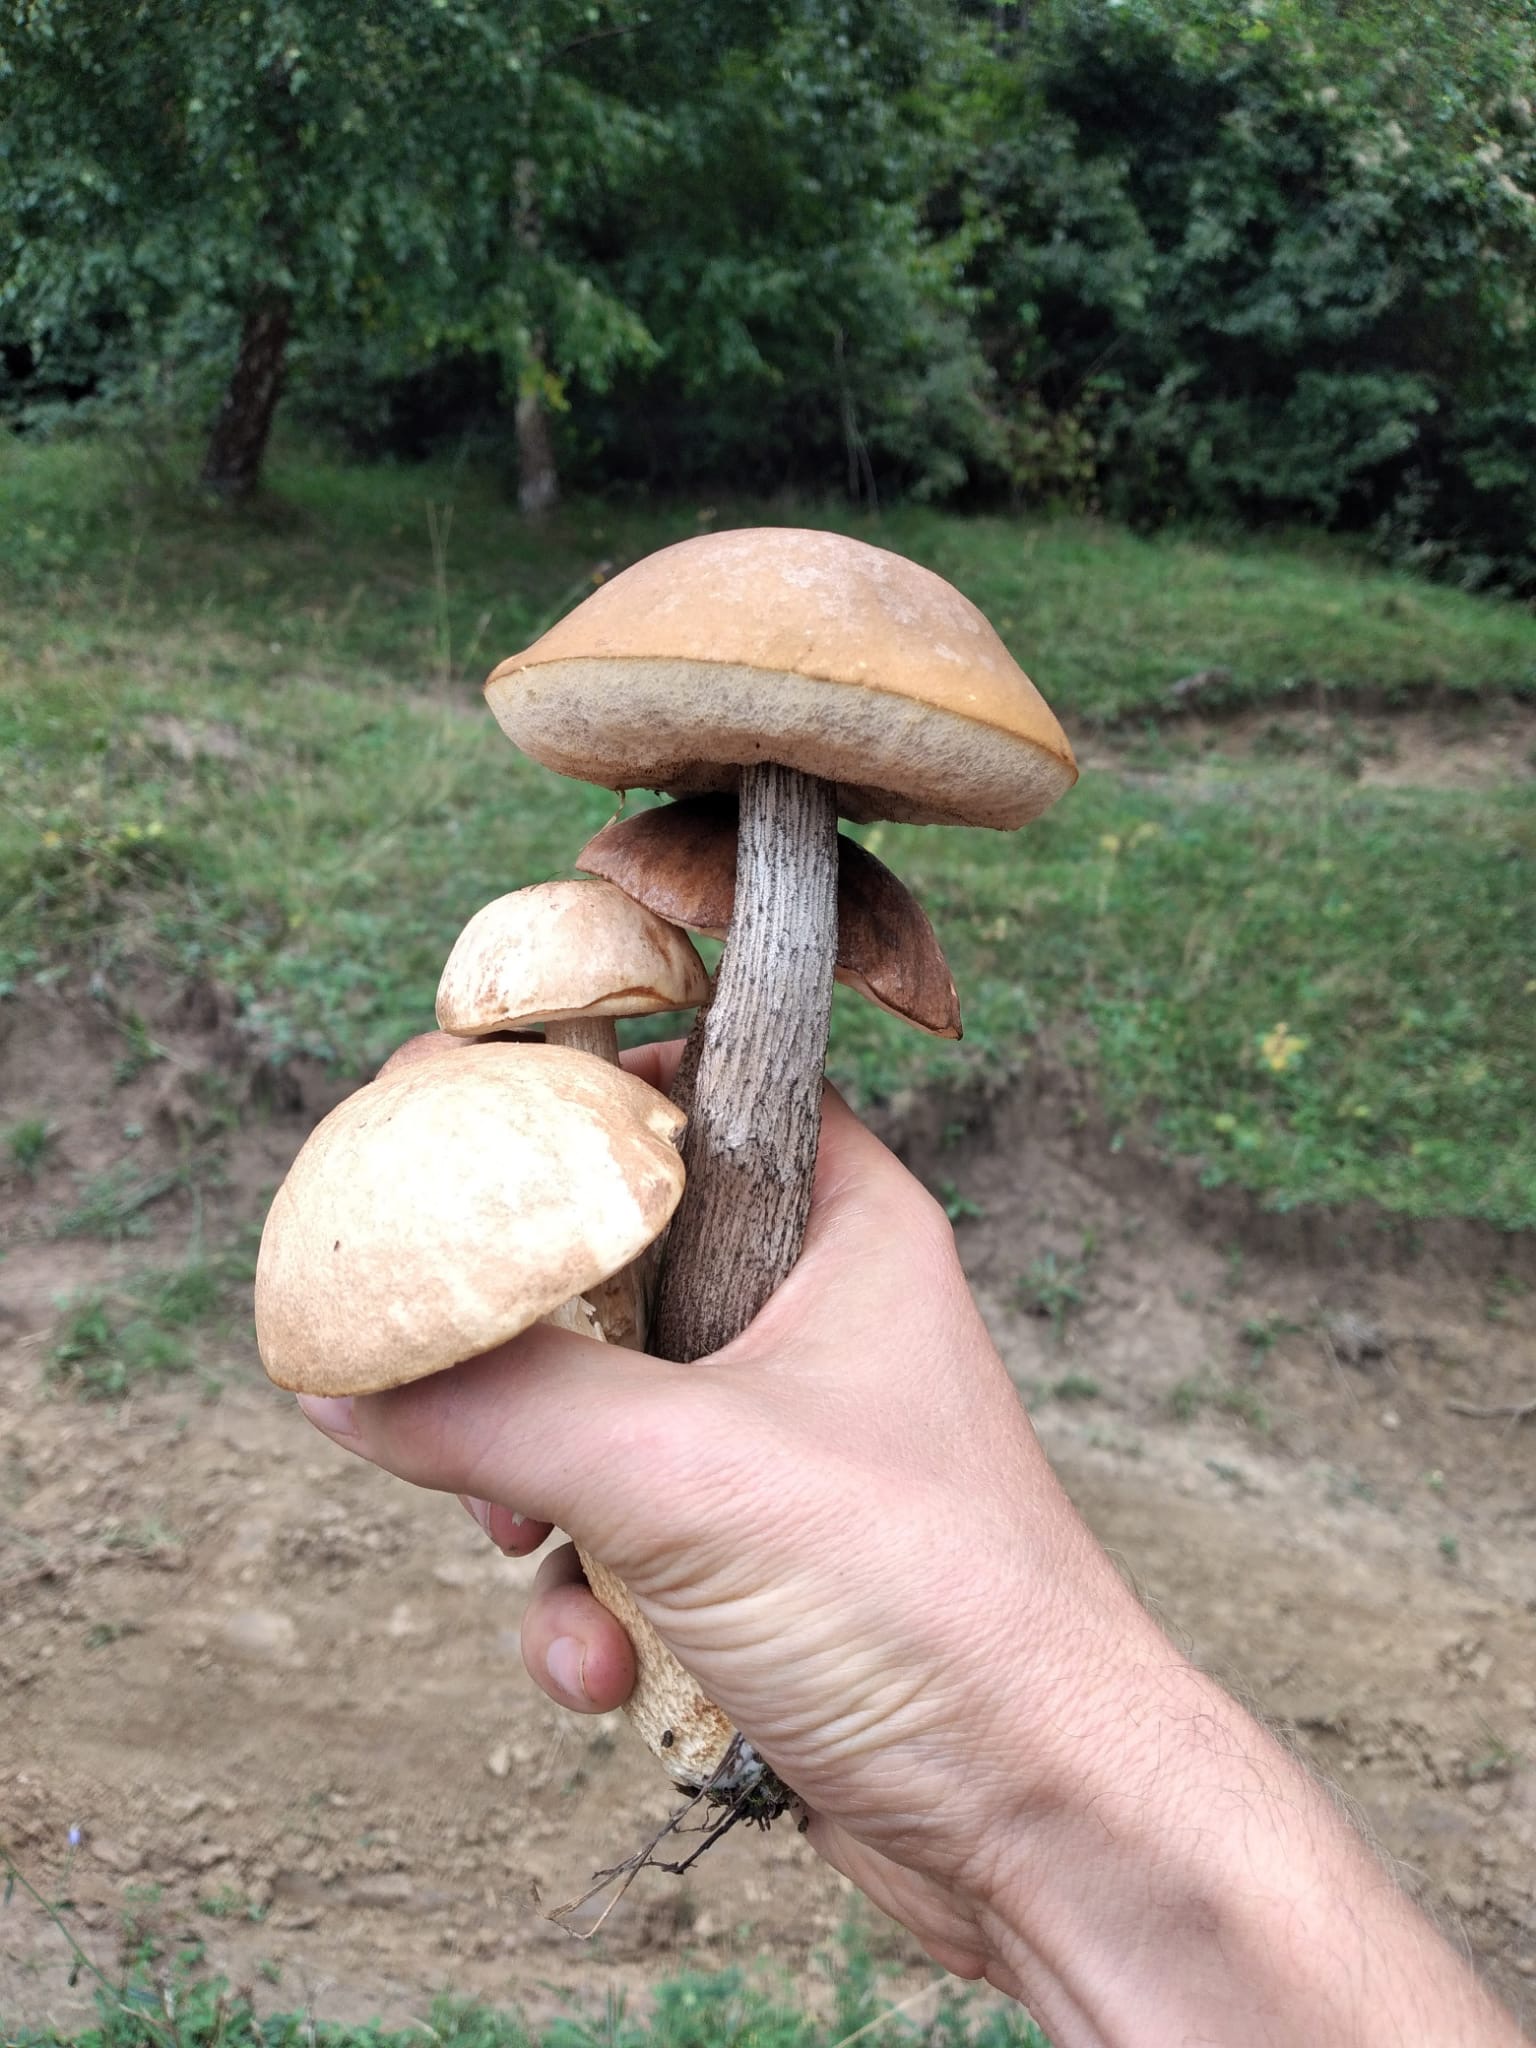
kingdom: Fungi
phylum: Basidiomycota
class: Agaricomycetes
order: Boletales
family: Boletaceae
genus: Leccinum
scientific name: Leccinum scabrum
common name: brun skælrørhat
